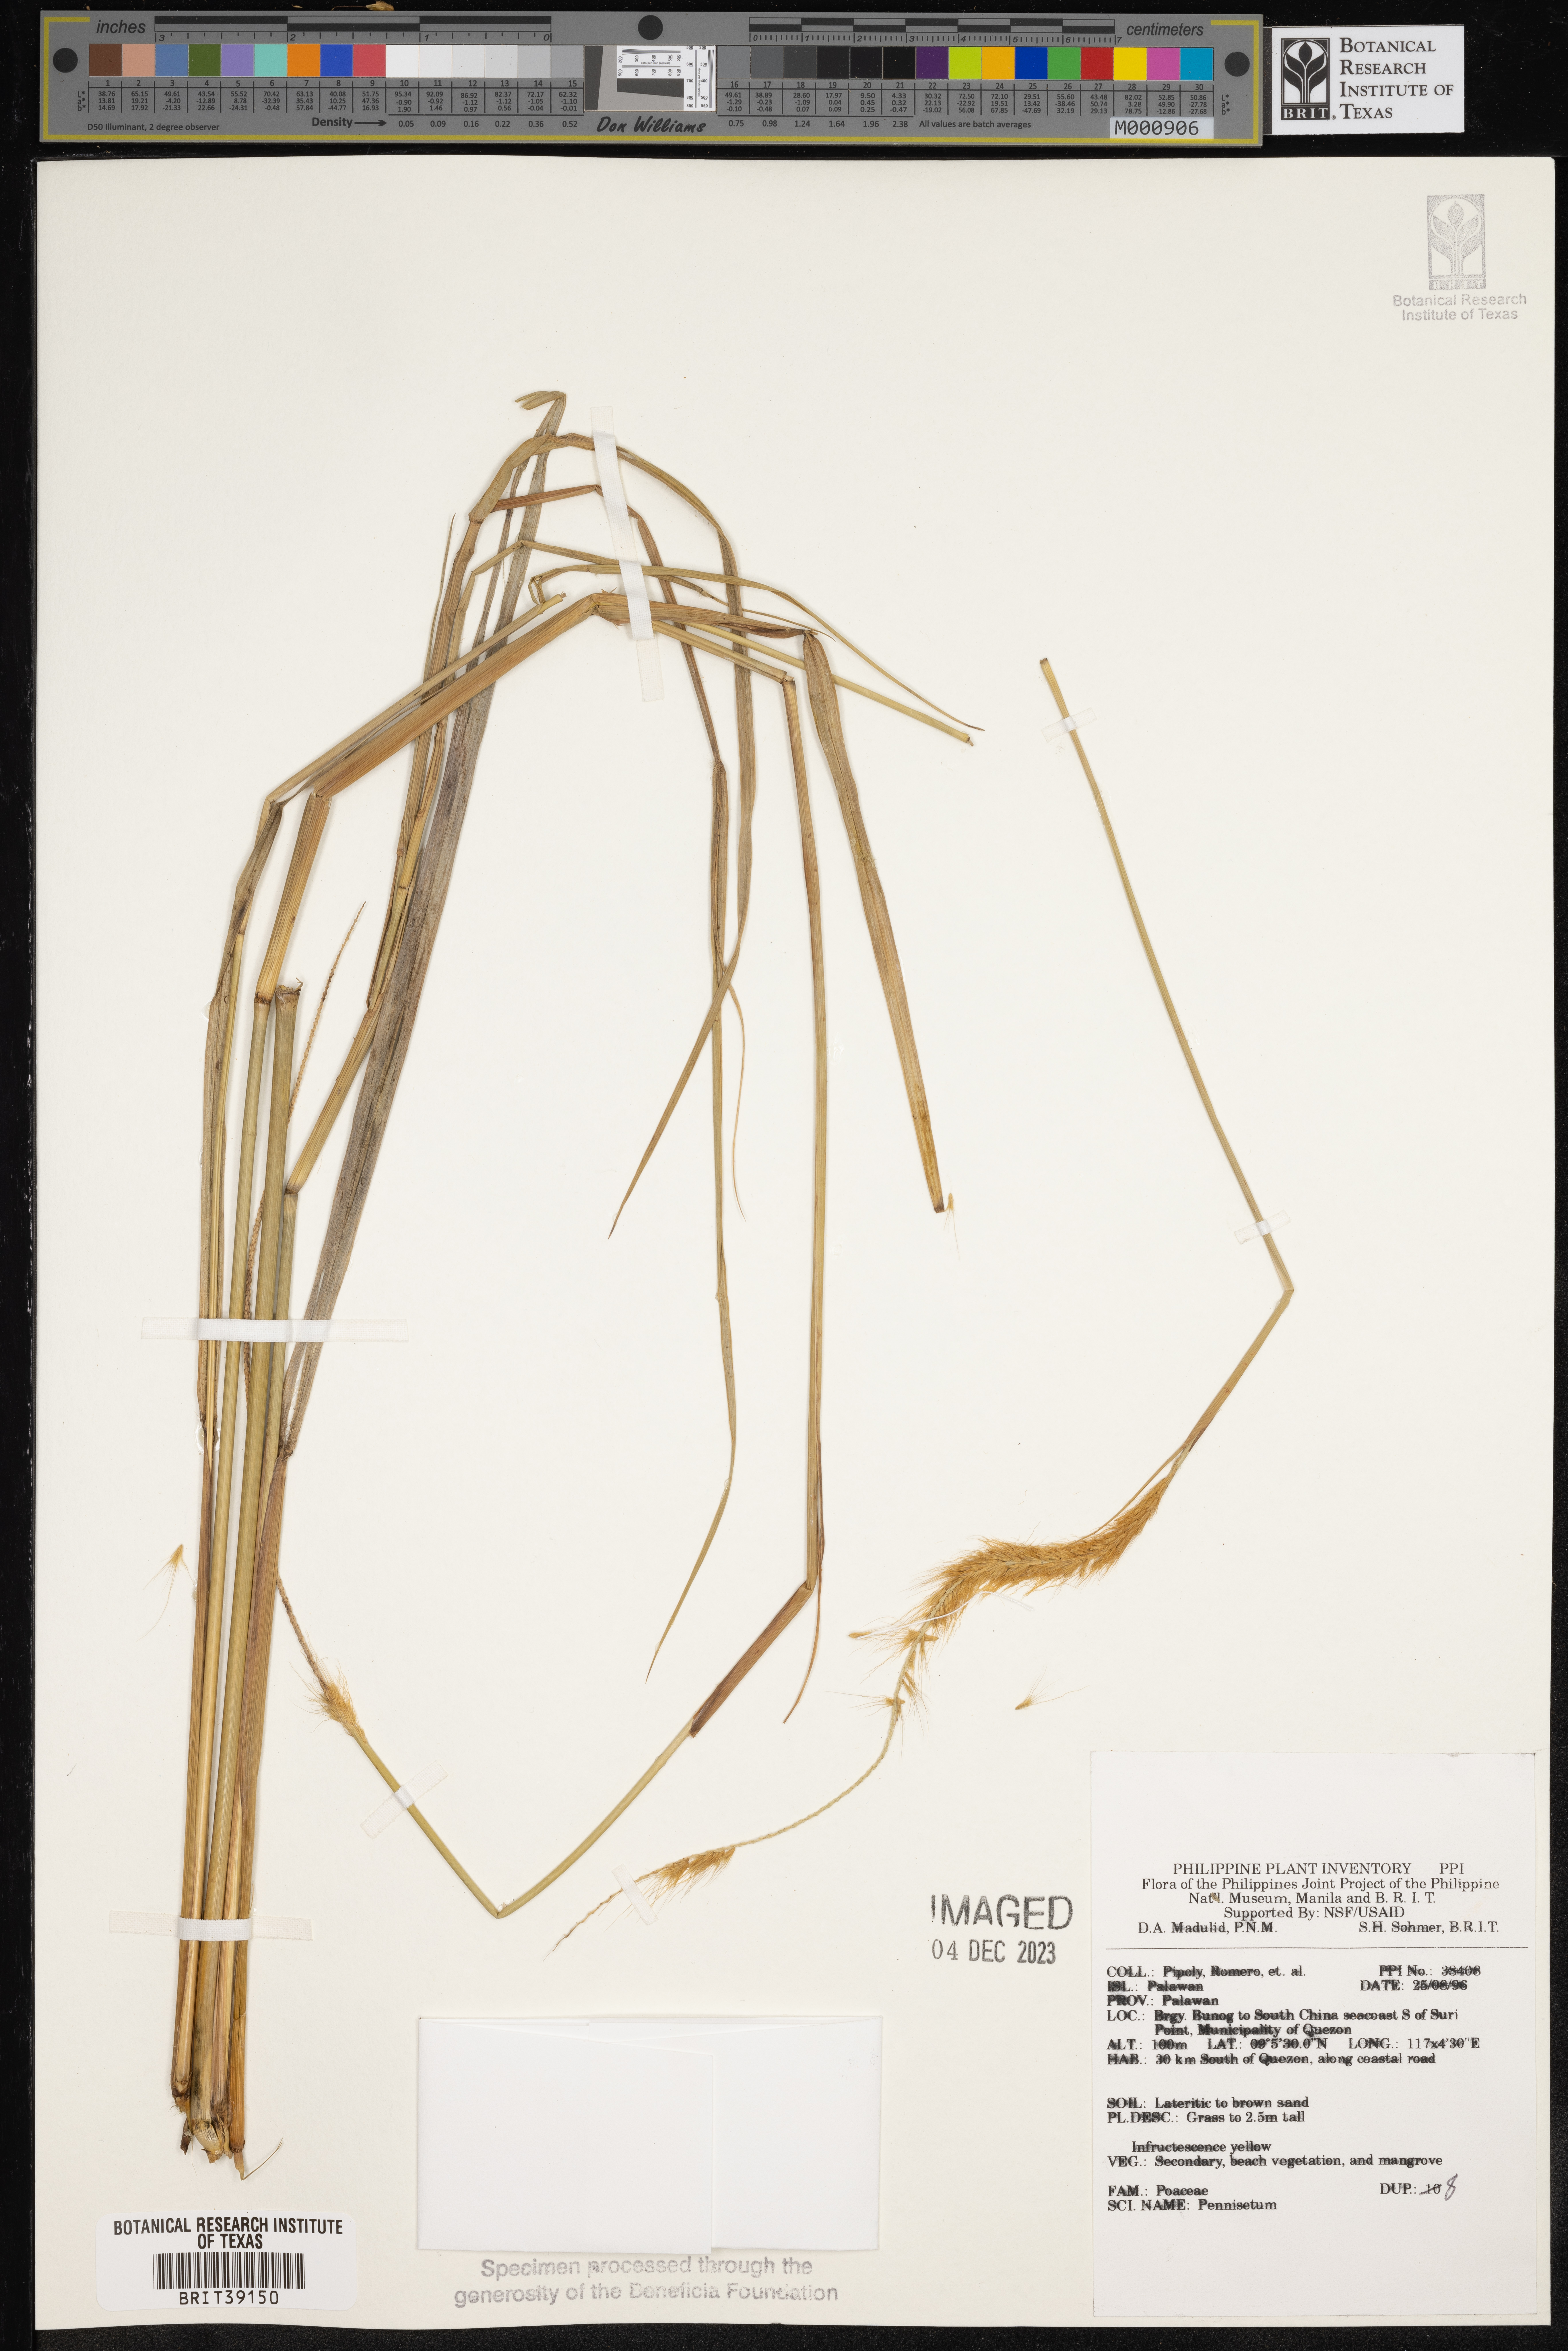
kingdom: Plantae
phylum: Tracheophyta
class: Liliopsida
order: Poales
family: Poaceae
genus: Cenchrus
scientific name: Cenchrus Pennisetum spec
